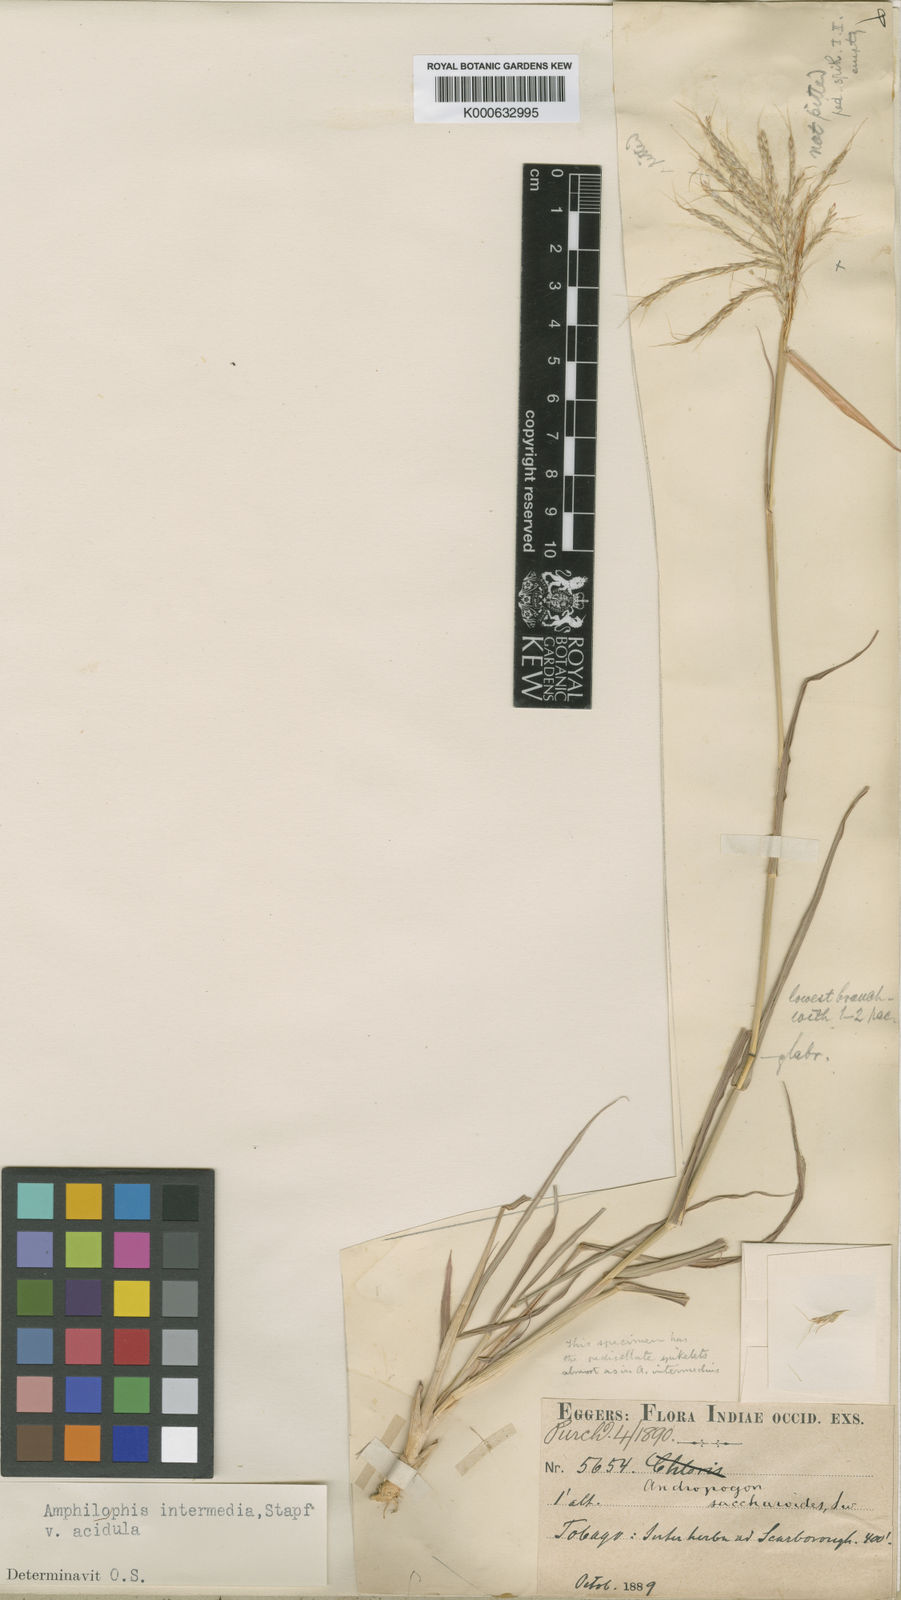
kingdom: Plantae
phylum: Tracheophyta
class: Liliopsida
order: Poales
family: Poaceae
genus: Bothriochloa
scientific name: Bothriochloa bladhii
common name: Caucasian bluestem
